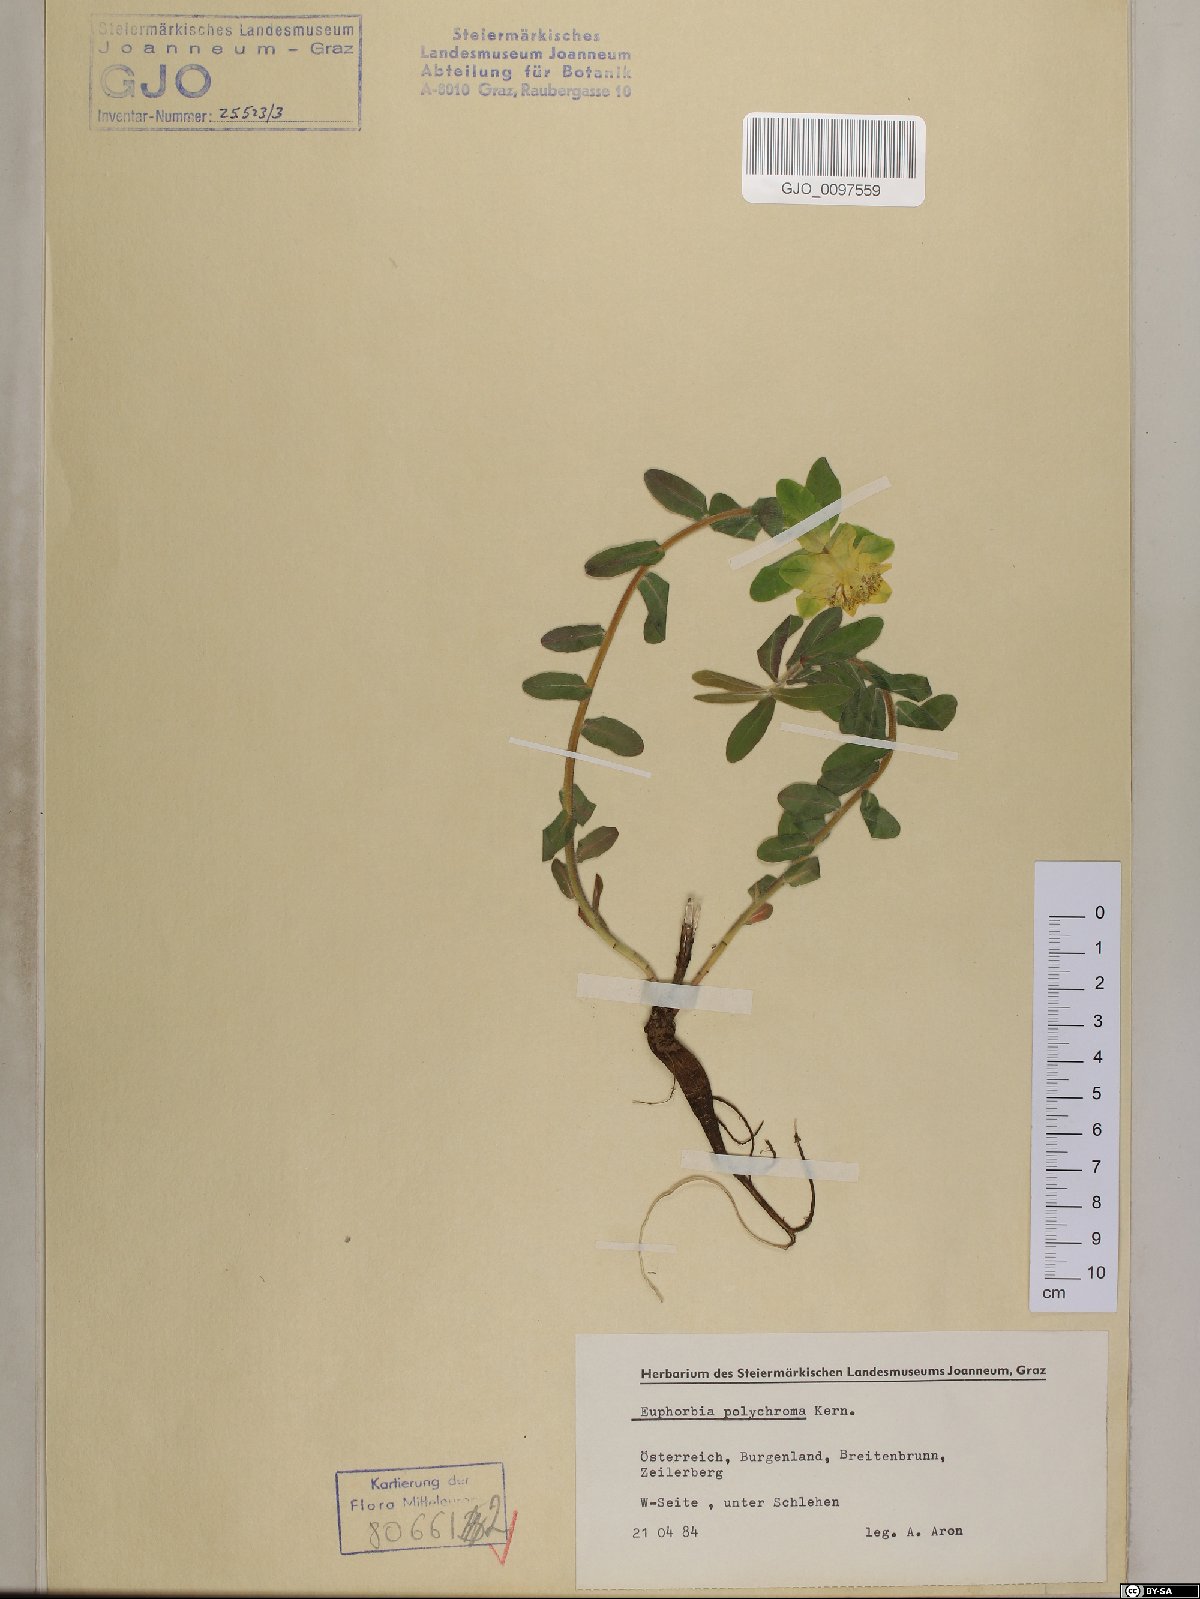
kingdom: Plantae
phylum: Tracheophyta
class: Magnoliopsida
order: Malpighiales
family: Euphorbiaceae
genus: Euphorbia
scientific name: Euphorbia epithymoides
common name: Cushion spurge
